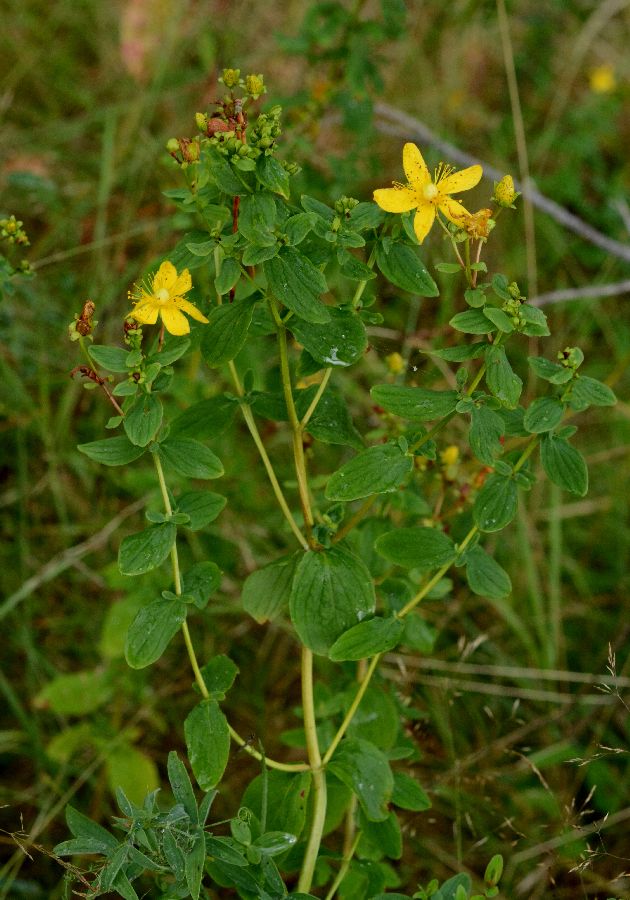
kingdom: Plantae
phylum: Tracheophyta
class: Magnoliopsida
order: Malpighiales
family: Hypericaceae
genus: Hypericum
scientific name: Hypericum maculatum
